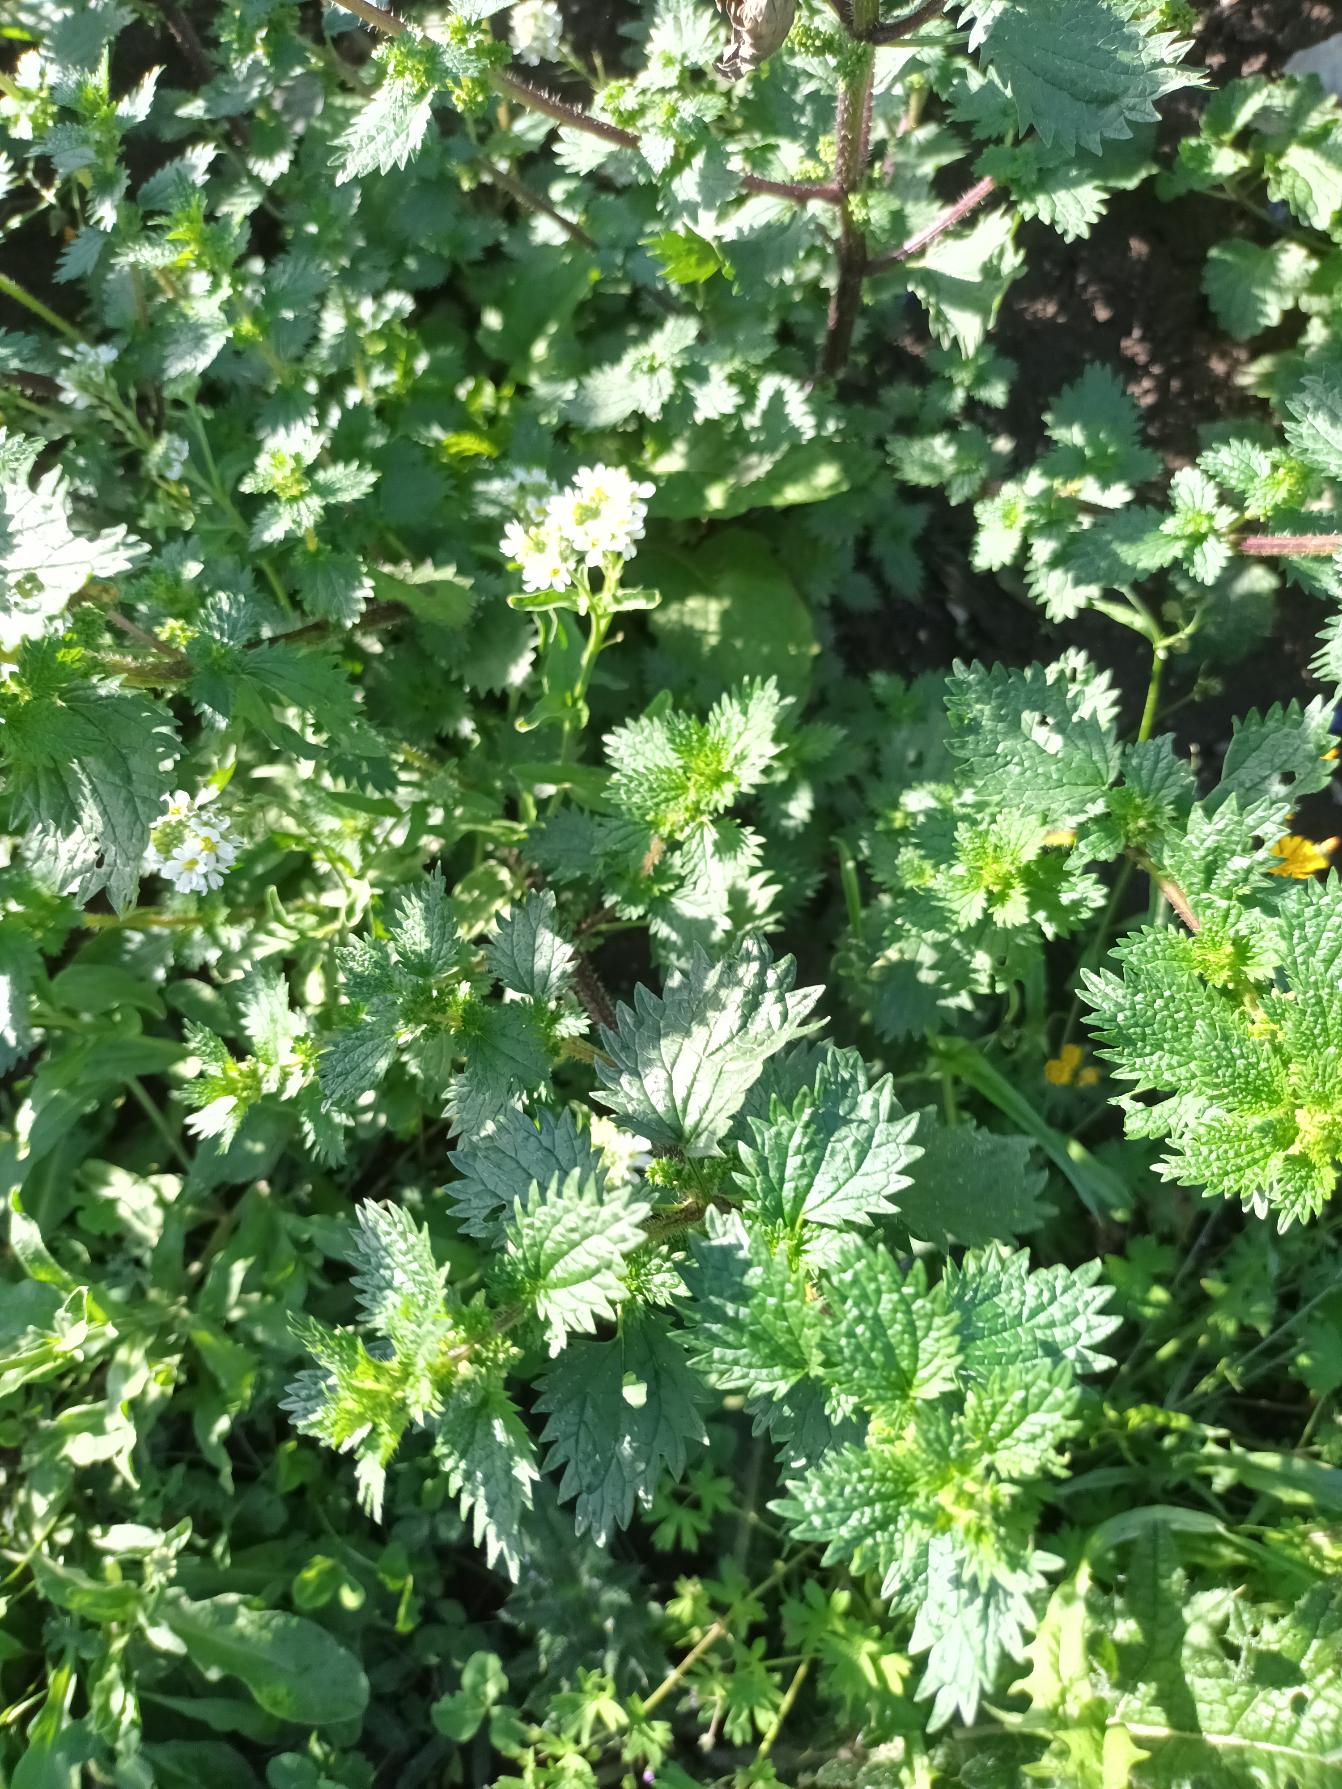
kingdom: Plantae
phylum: Tracheophyta
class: Magnoliopsida
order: Rosales
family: Urticaceae
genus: Urtica
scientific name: Urtica urens
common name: Liden nælde
